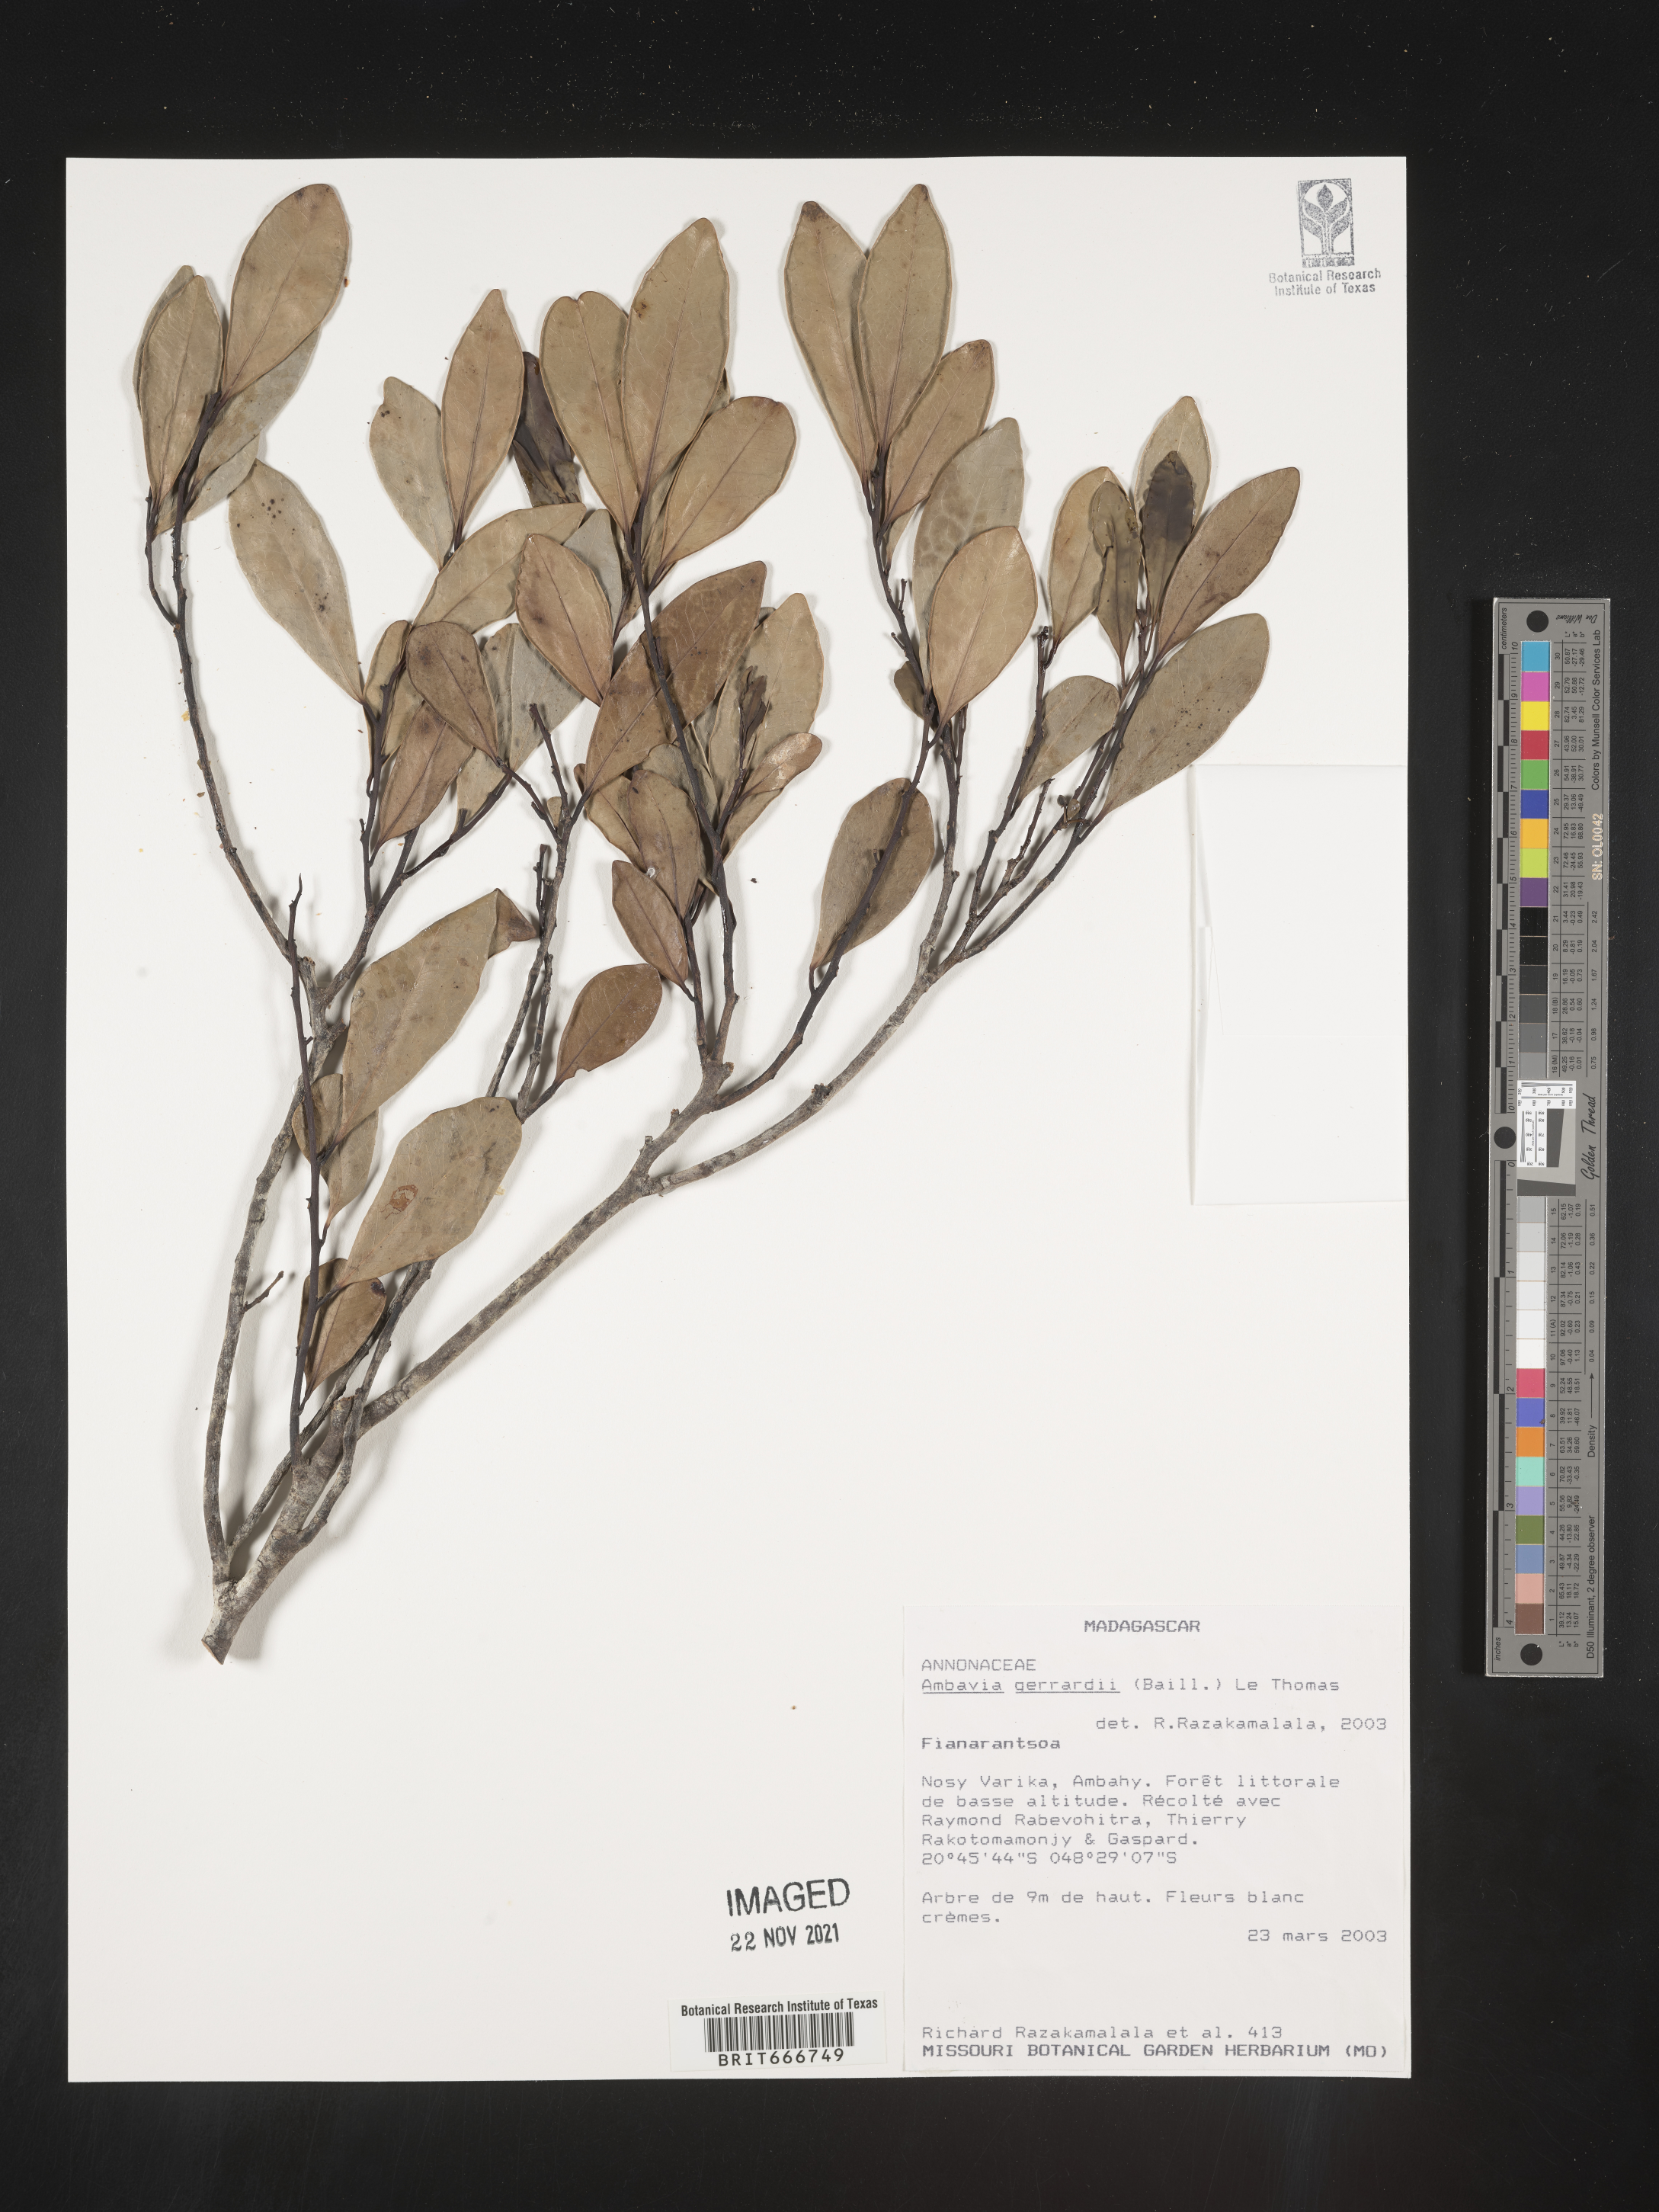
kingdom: Plantae
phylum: Tracheophyta
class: Magnoliopsida
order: Magnoliales
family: Annonaceae
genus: Ambavia
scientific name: Ambavia
